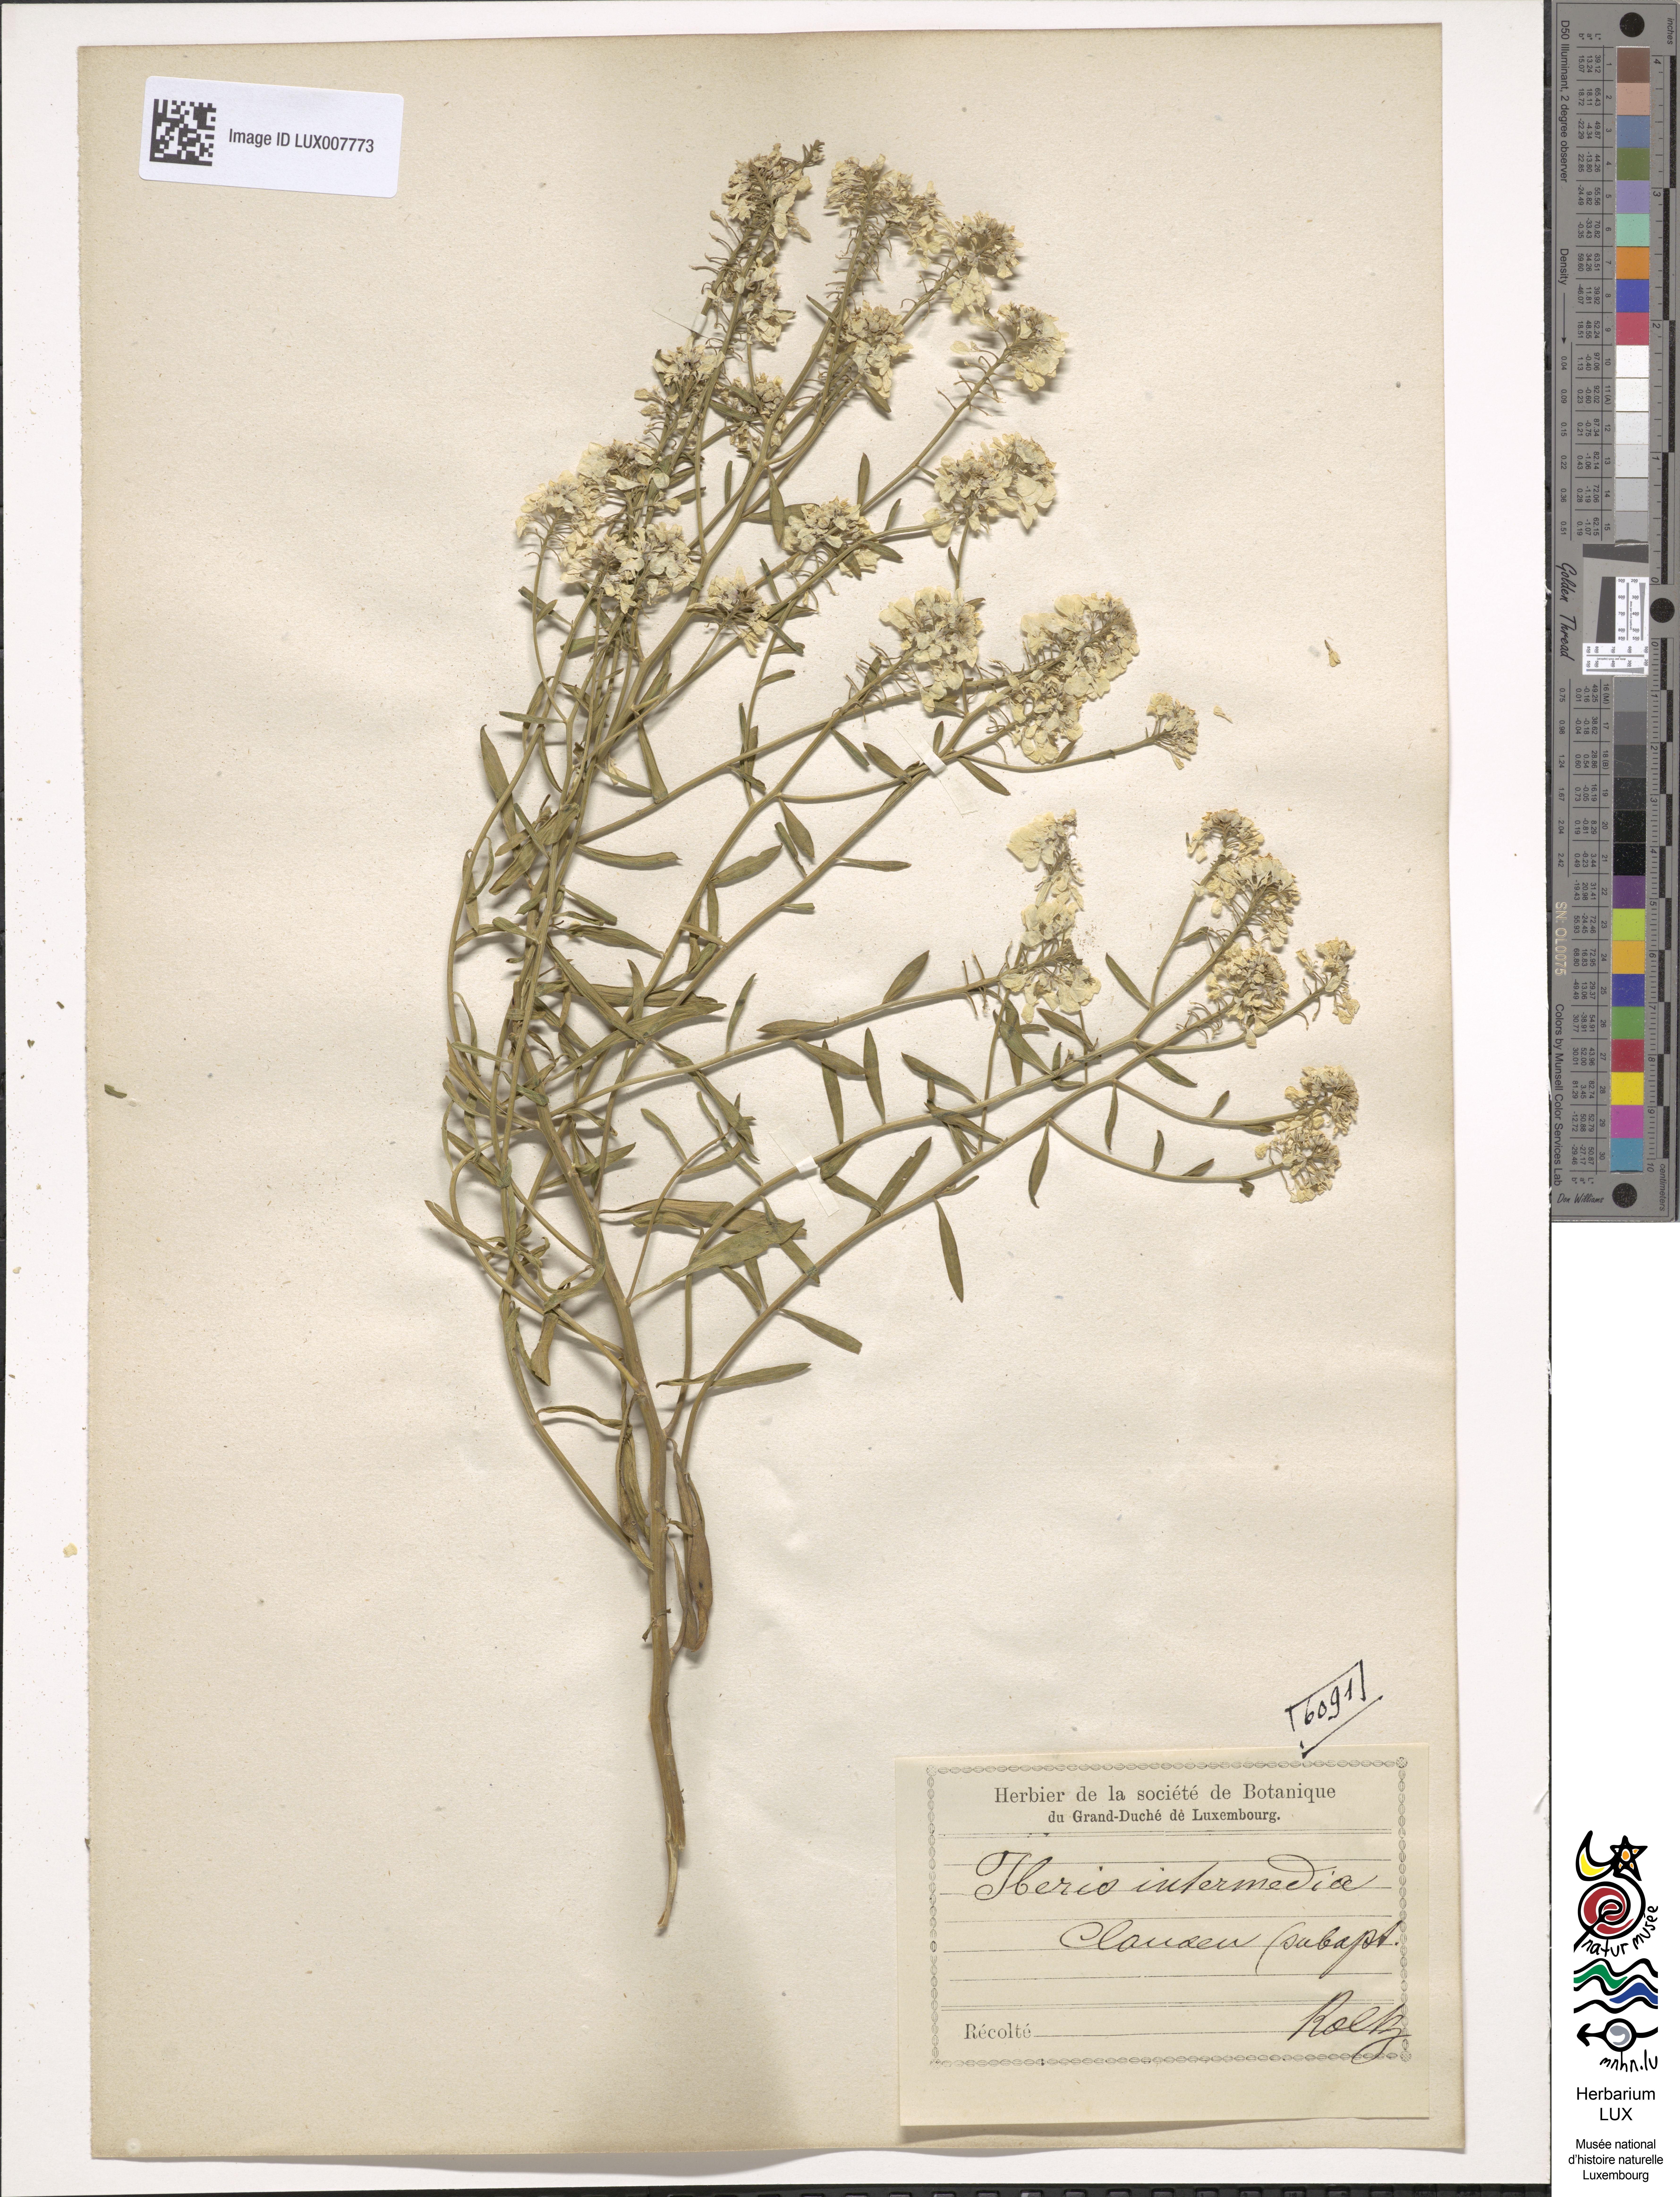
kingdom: Plantae
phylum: Tracheophyta
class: Magnoliopsida
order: Brassicales
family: Brassicaceae
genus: Iberis
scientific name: Iberis linifolia
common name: Candytuft
